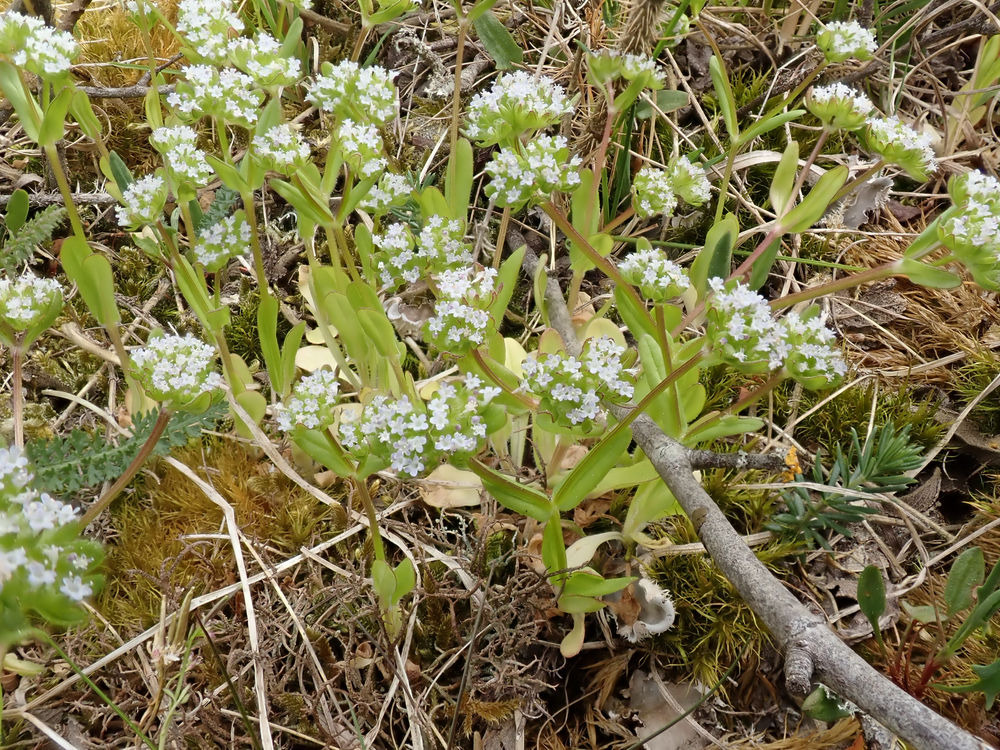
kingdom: Plantae
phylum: Tracheophyta
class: Magnoliopsida
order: Dipsacales
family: Caprifoliaceae
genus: Valerianella
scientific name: Valerianella locusta
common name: Tandfri vårsalat
